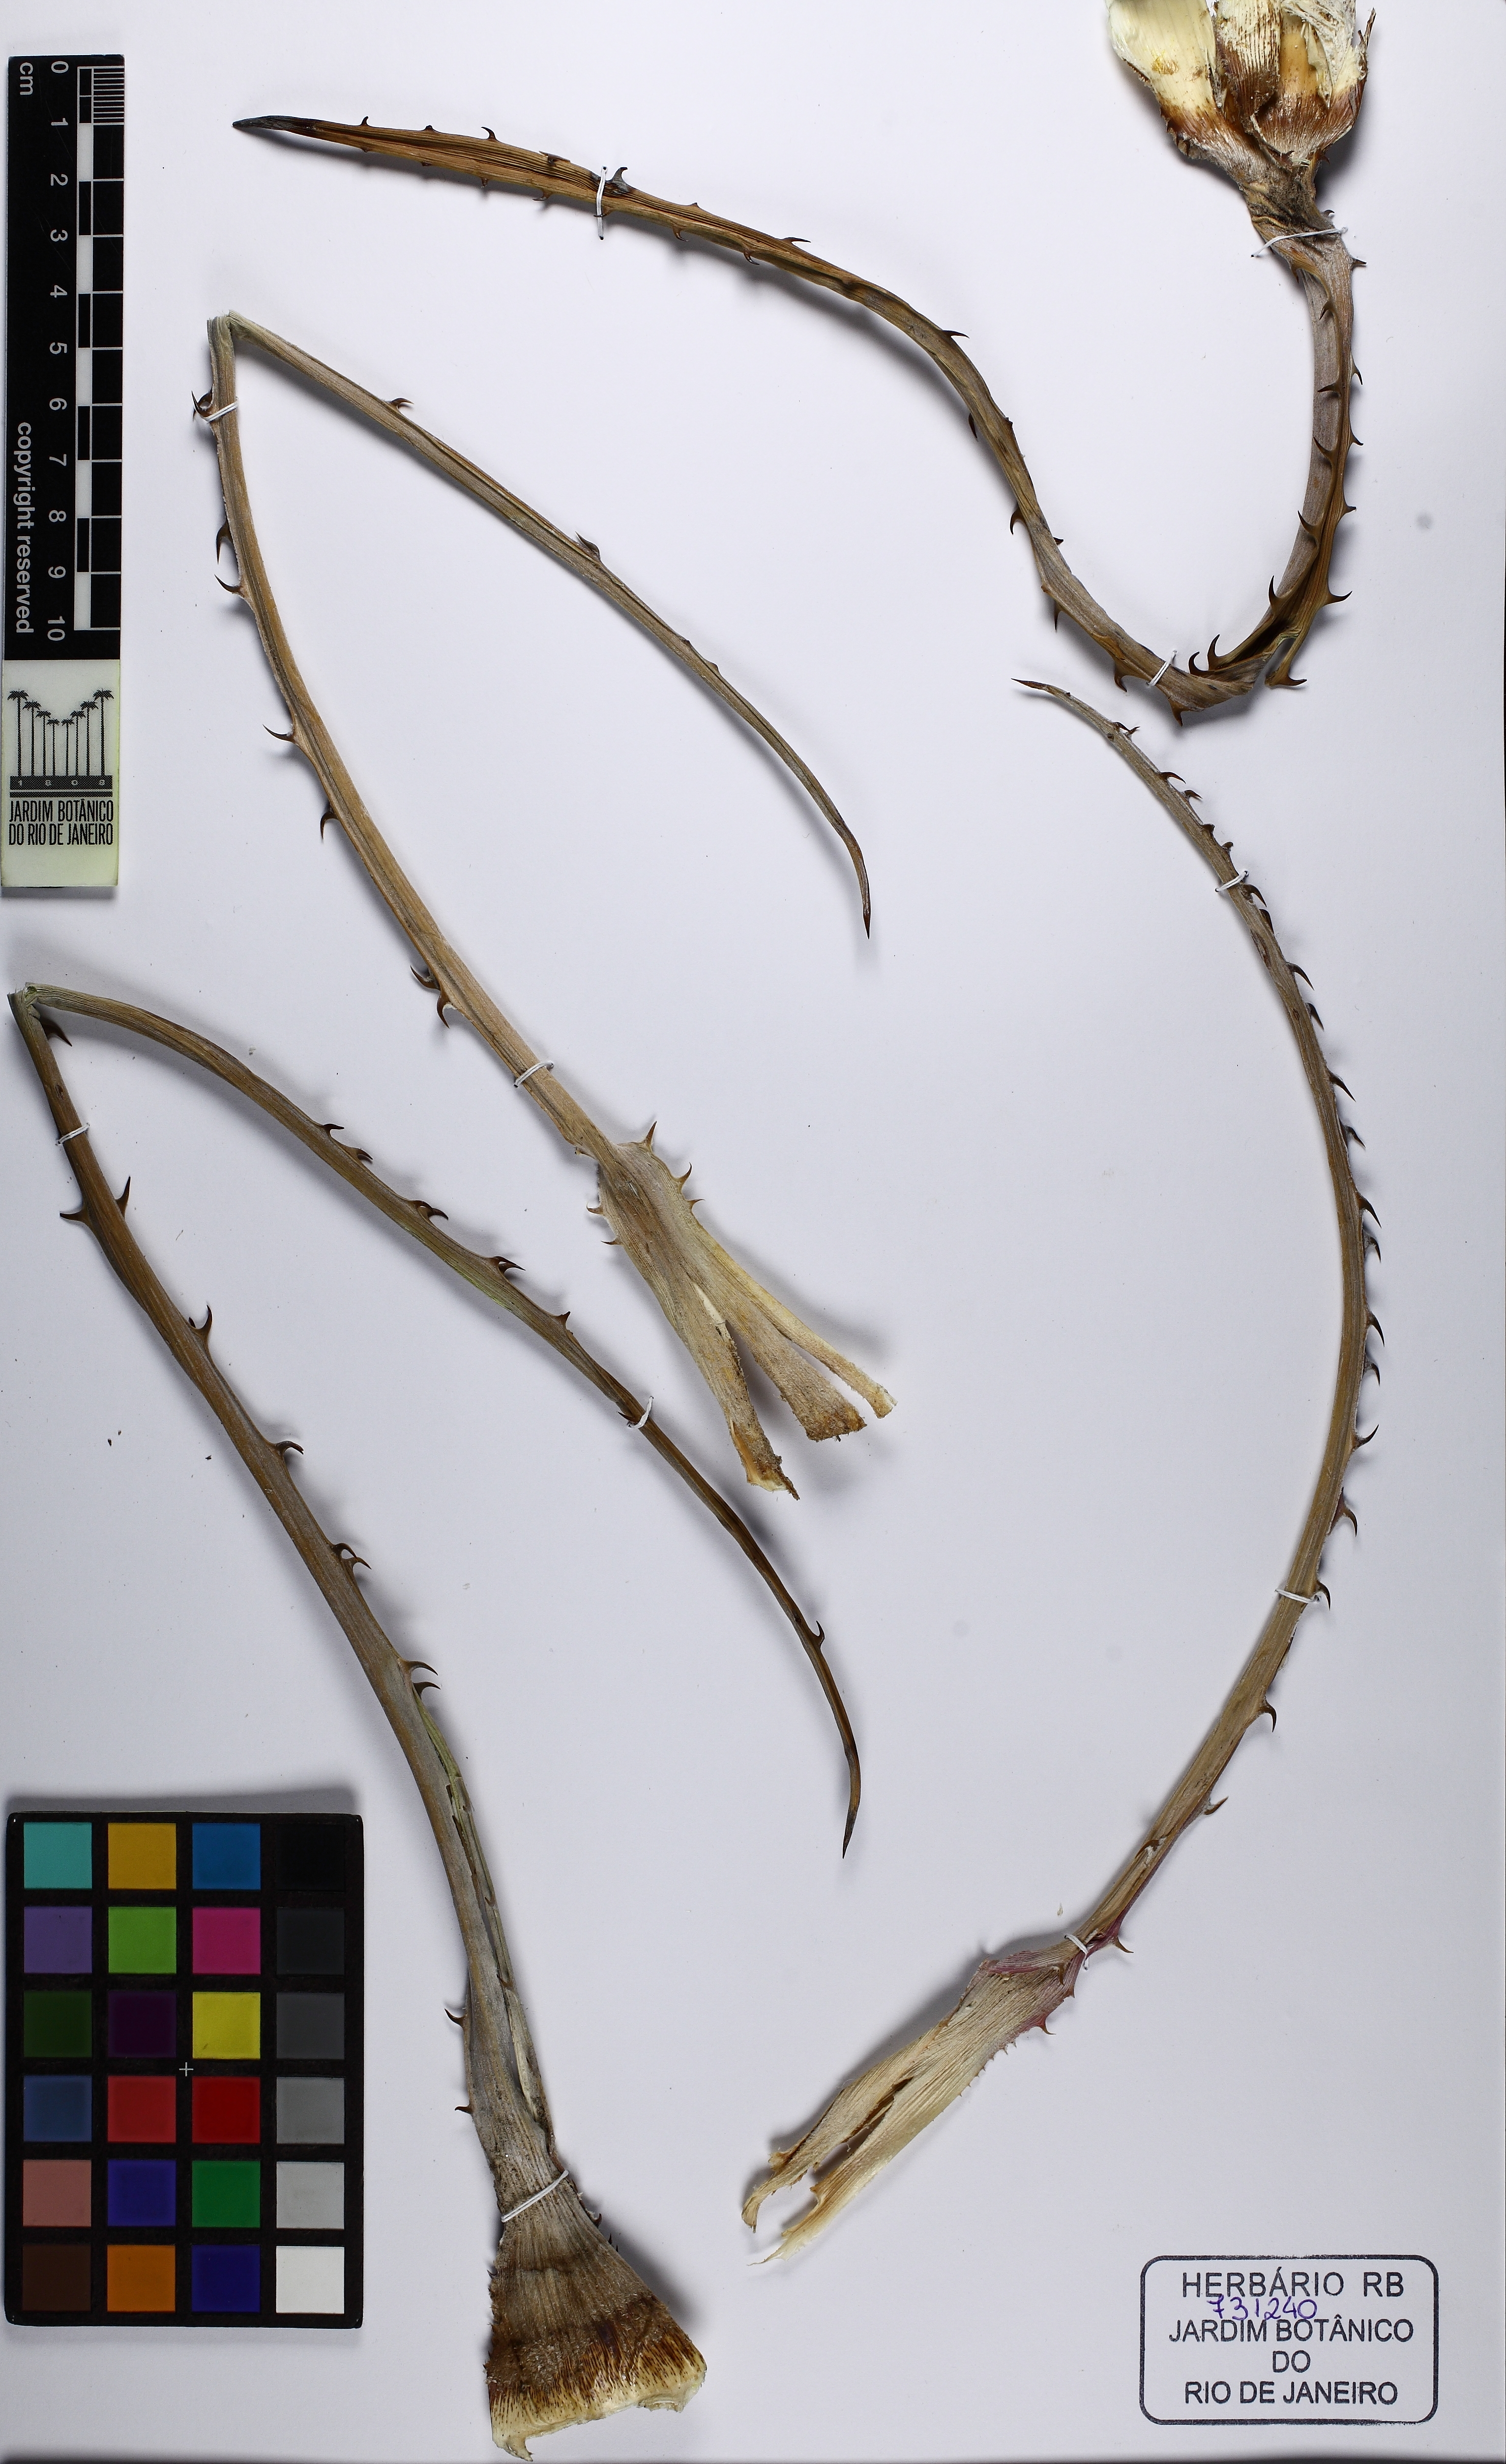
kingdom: Plantae
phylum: Tracheophyta
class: Liliopsida
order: Poales
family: Bromeliaceae
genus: Bromelia
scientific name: Bromelia laciniosa
